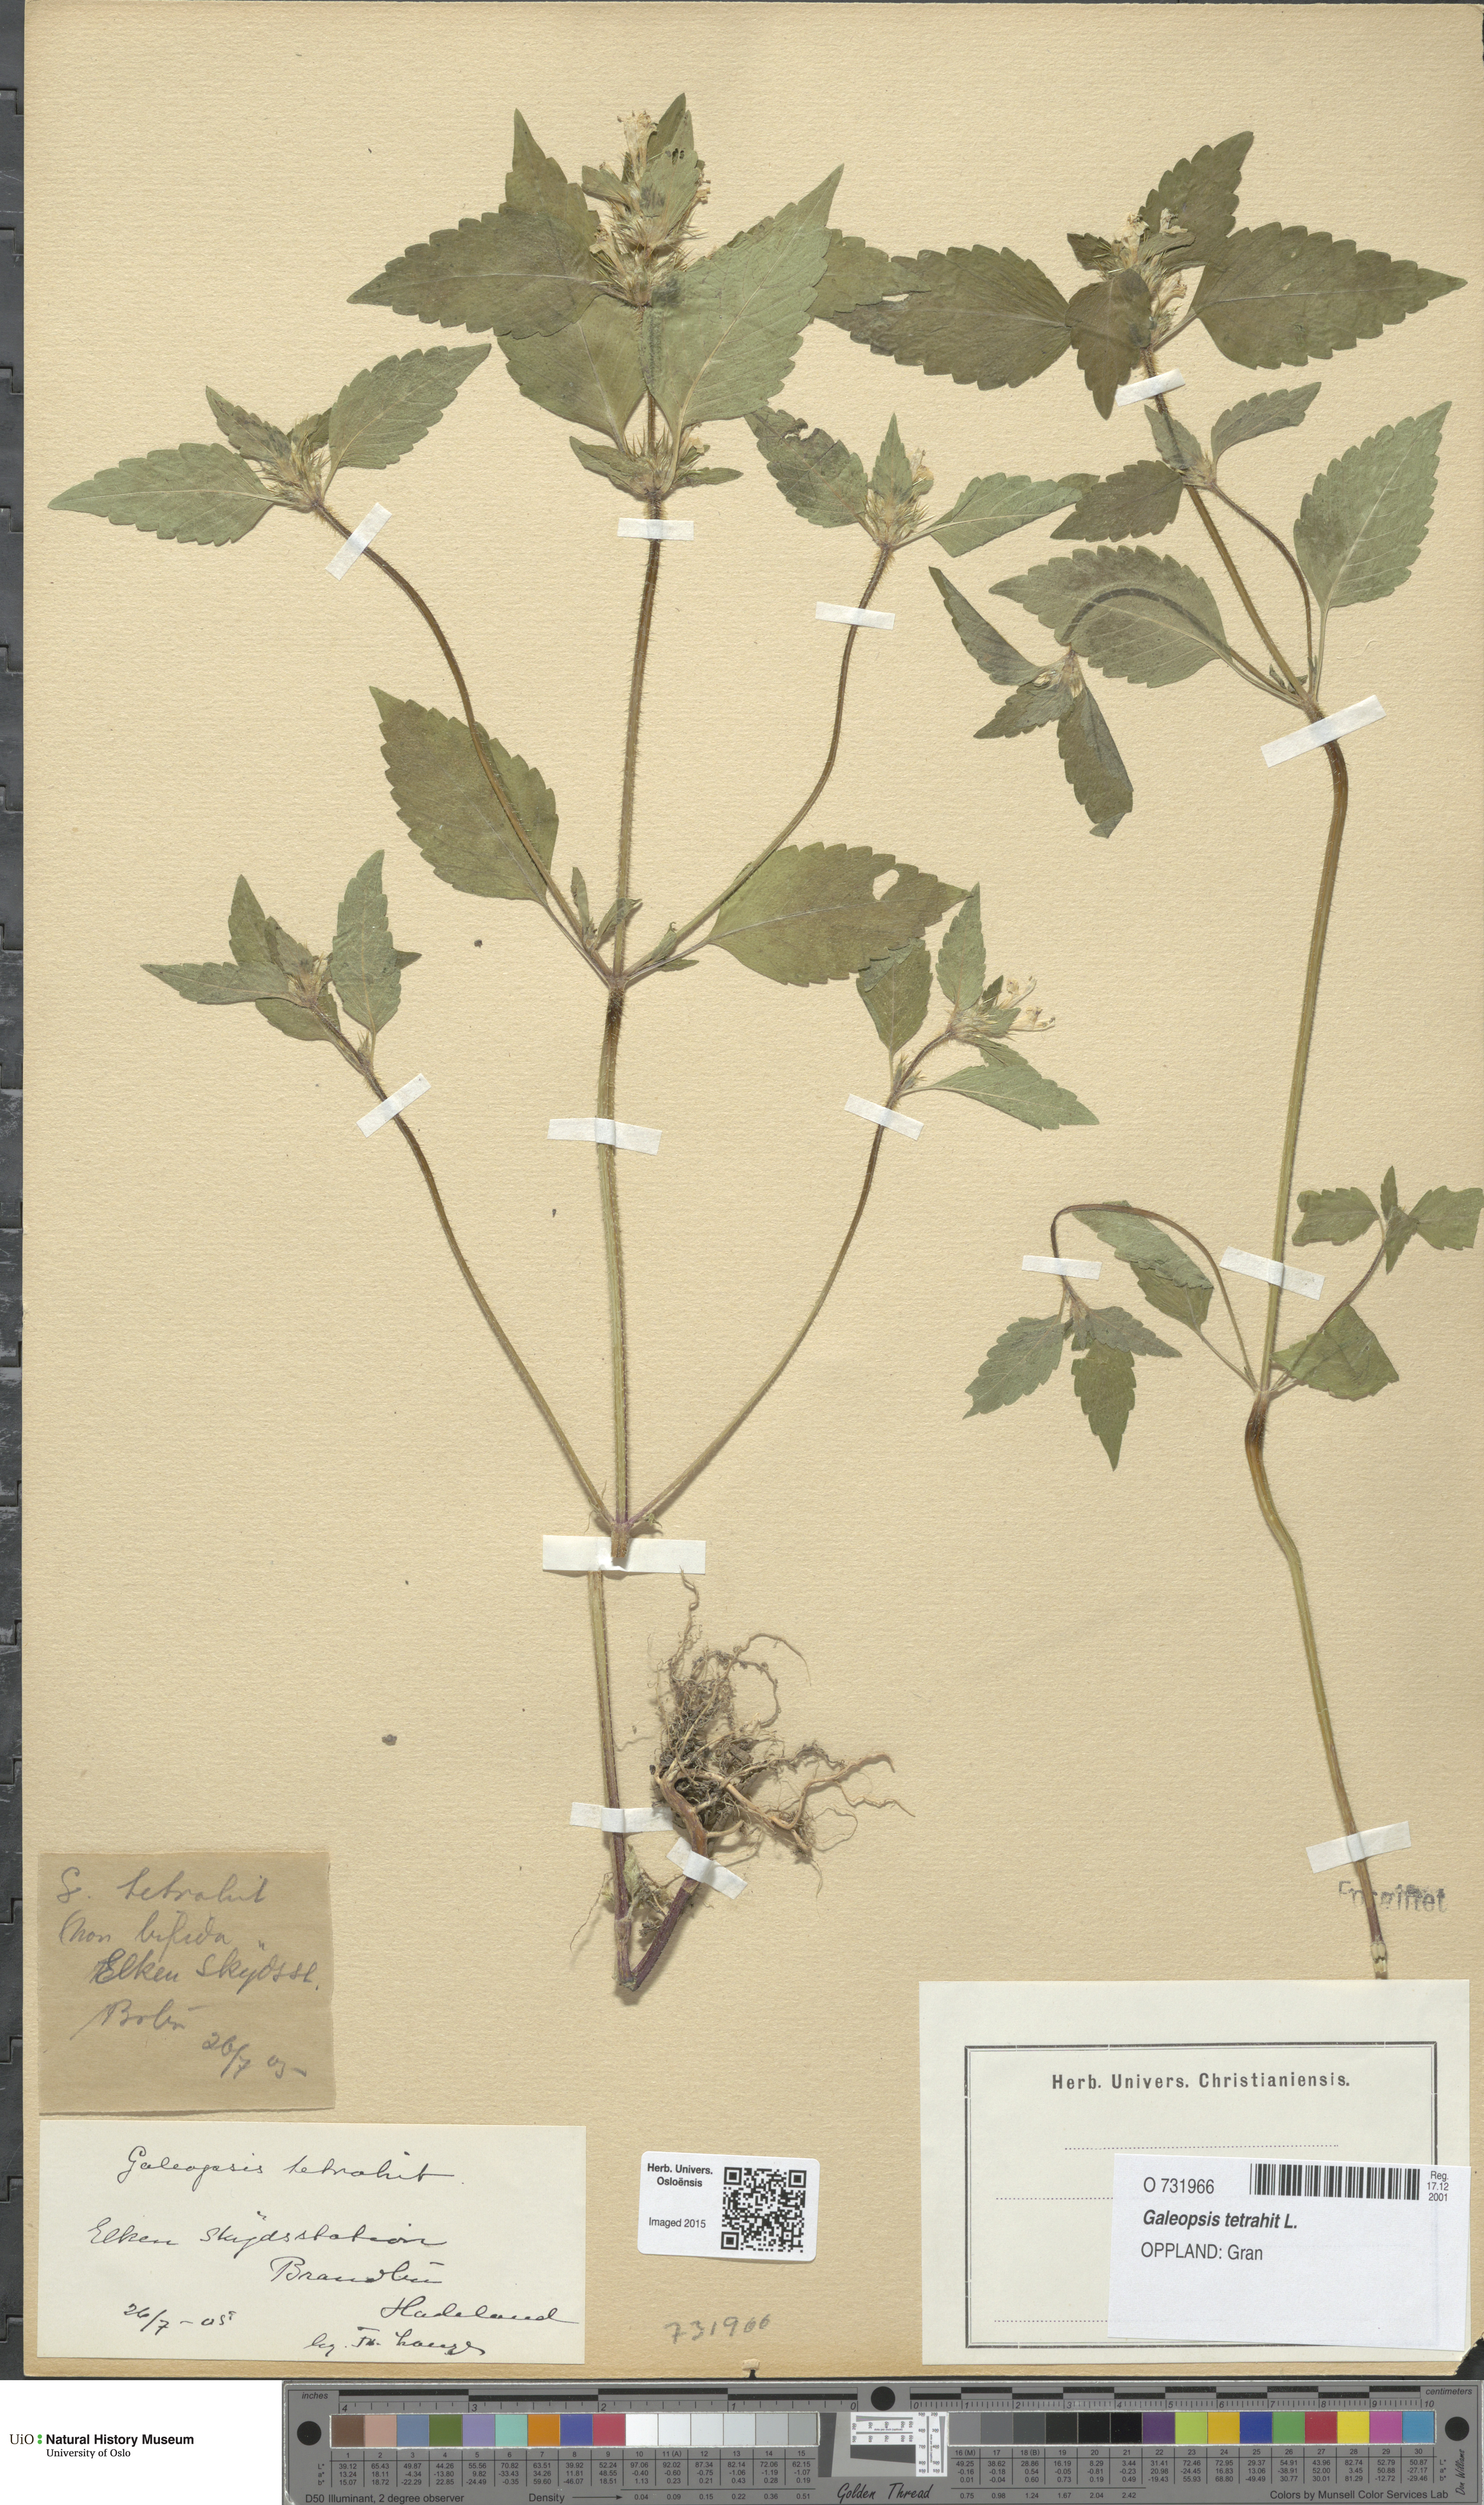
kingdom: Plantae
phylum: Tracheophyta
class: Magnoliopsida
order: Lamiales
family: Lamiaceae
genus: Galeopsis
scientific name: Galeopsis tetrahit
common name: Common hemp-nettle
